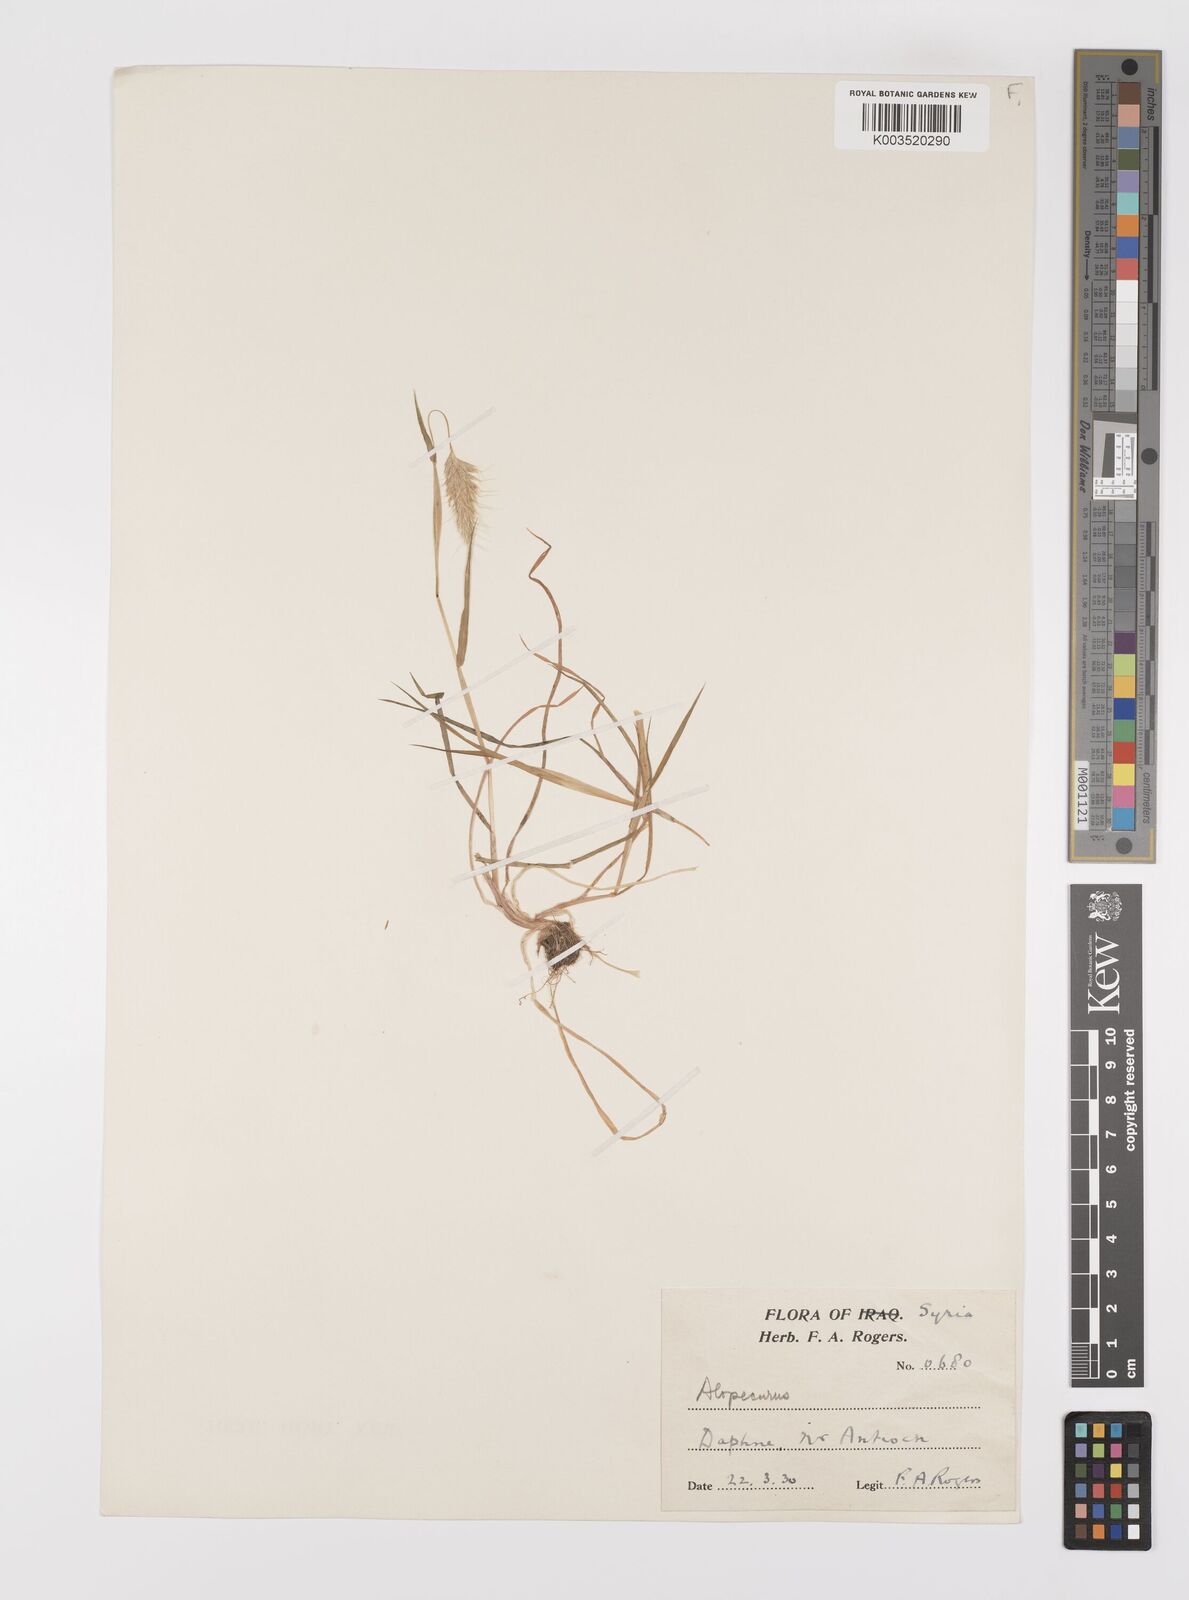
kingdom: Plantae
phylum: Tracheophyta
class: Liliopsida
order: Poales
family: Poaceae
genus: Alopecurus
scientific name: Alopecurus utriculatus
